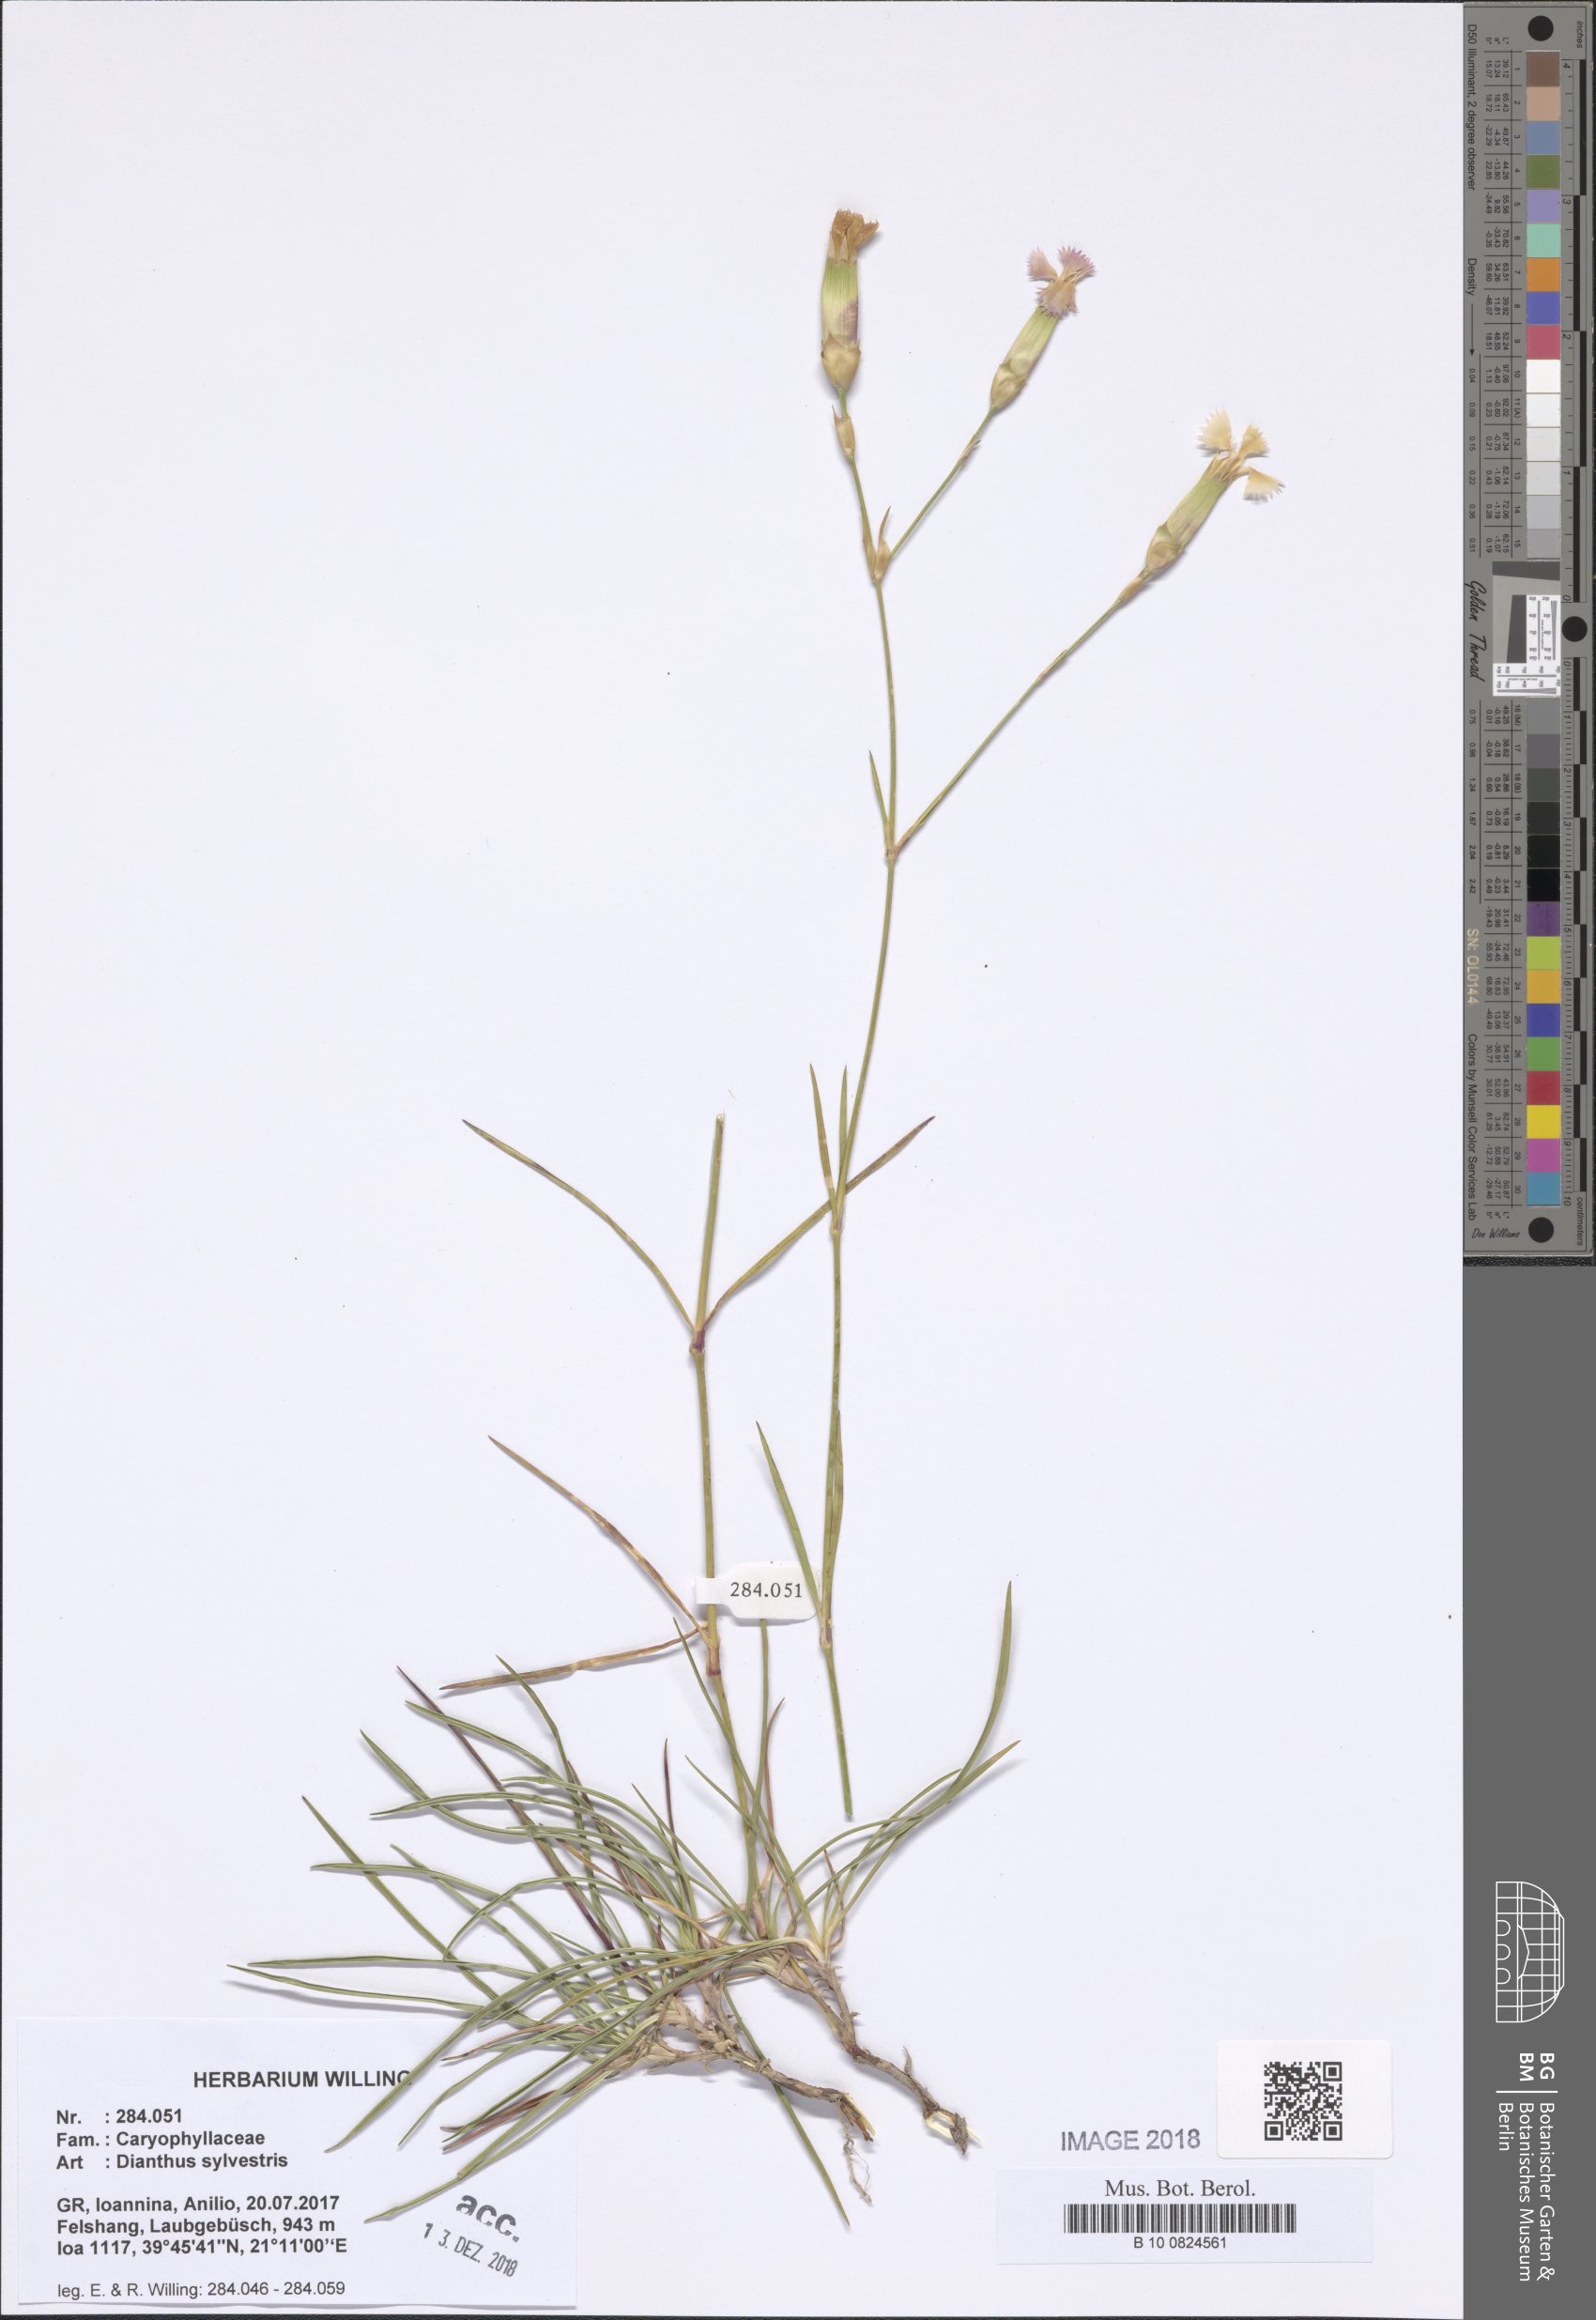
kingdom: Plantae
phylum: Tracheophyta
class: Magnoliopsida
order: Caryophyllales
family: Caryophyllaceae
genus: Dianthus
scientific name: Dianthus sylvestris
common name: Wood pink
